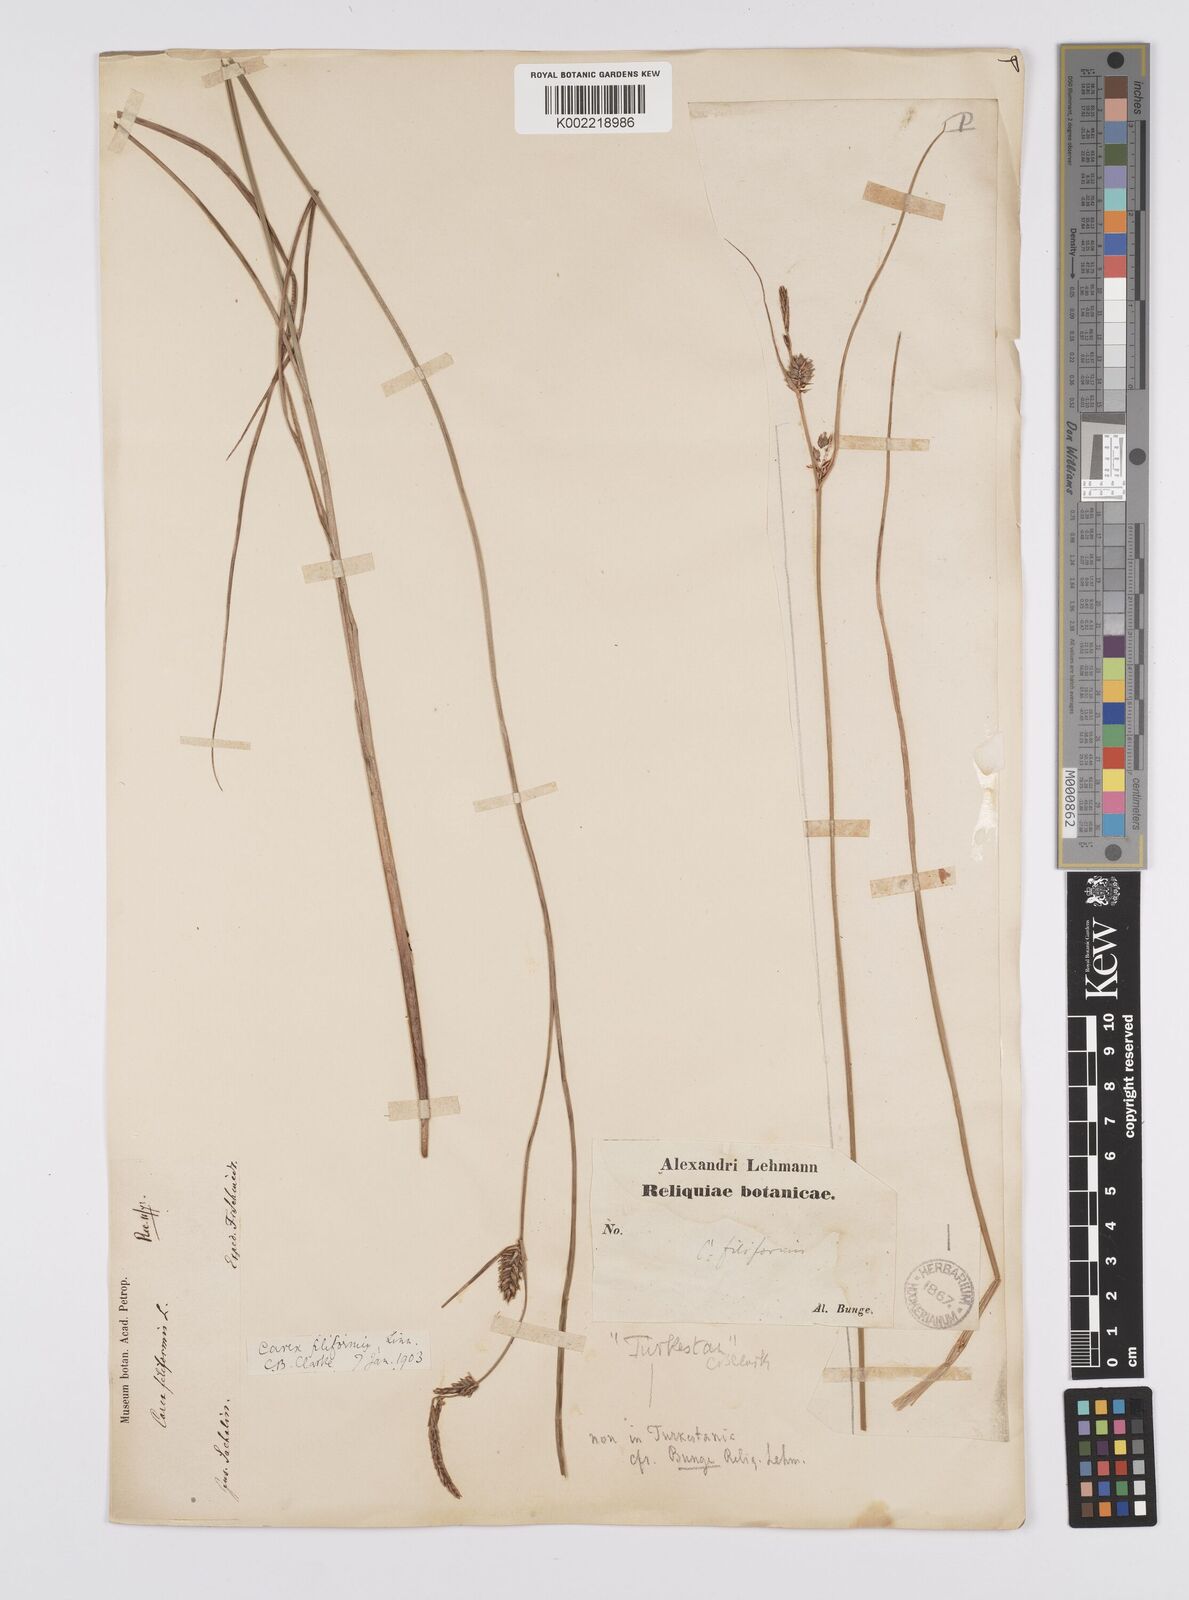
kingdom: Plantae
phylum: Tracheophyta
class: Liliopsida
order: Poales
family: Cyperaceae
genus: Carex
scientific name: Carex lasiocarpa
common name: Slender sedge
